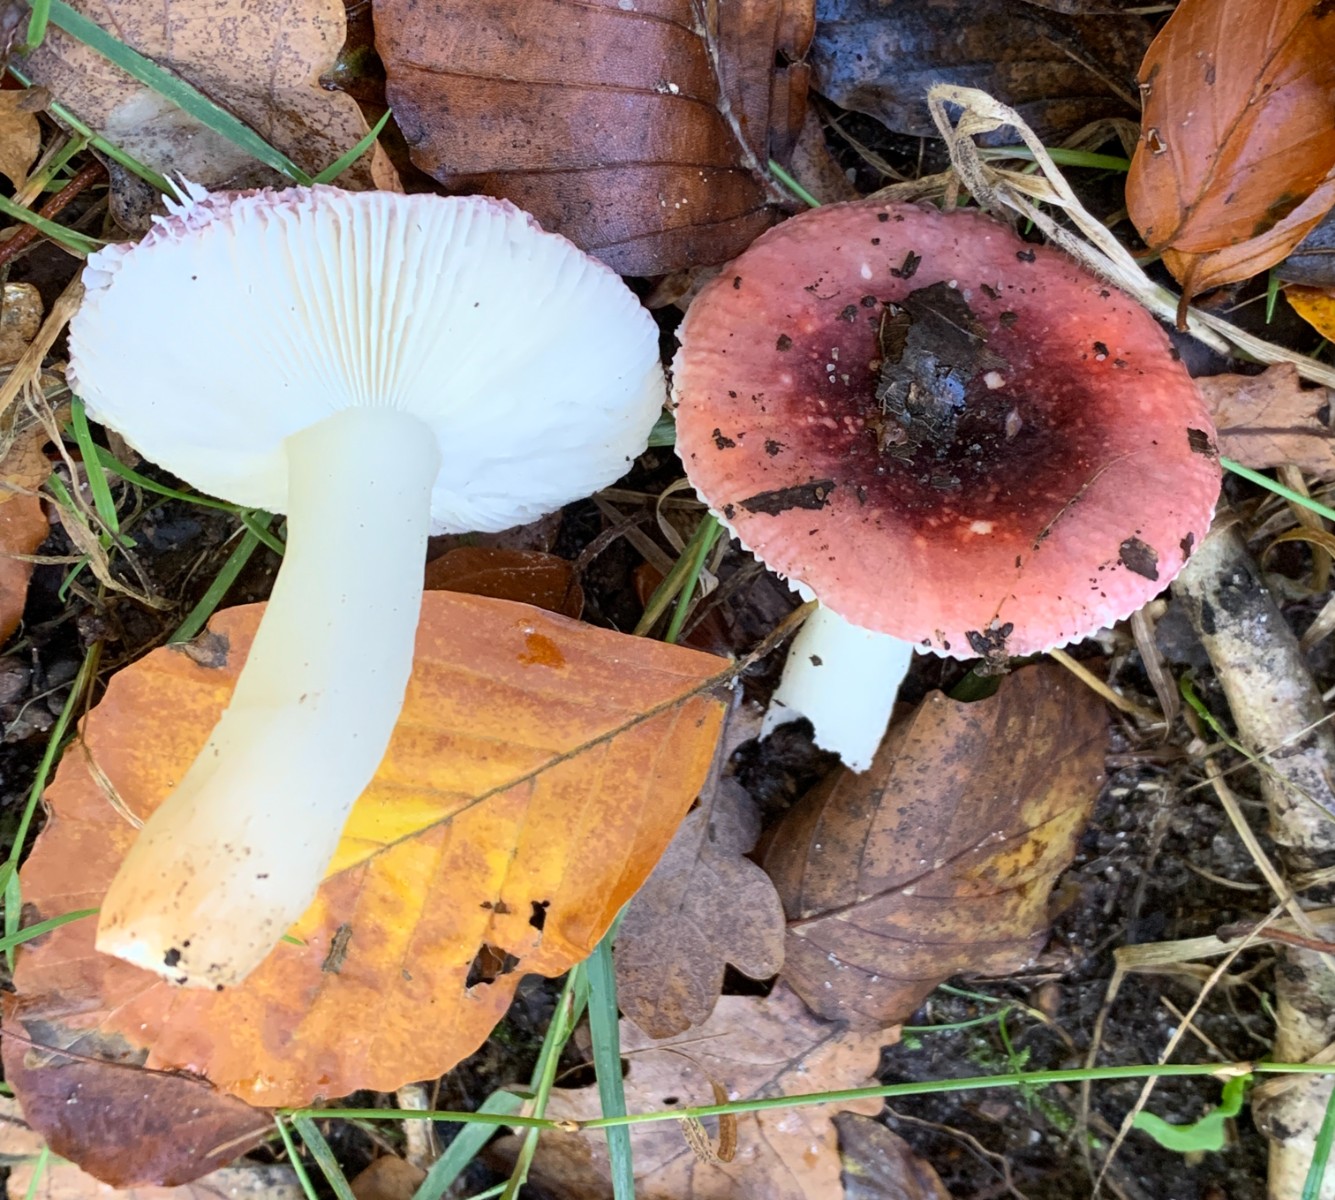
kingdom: Fungi
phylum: Basidiomycota
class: Agaricomycetes
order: Russulales
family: Russulaceae
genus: Russula
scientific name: Russula atrorubens
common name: sortrød skørhat
